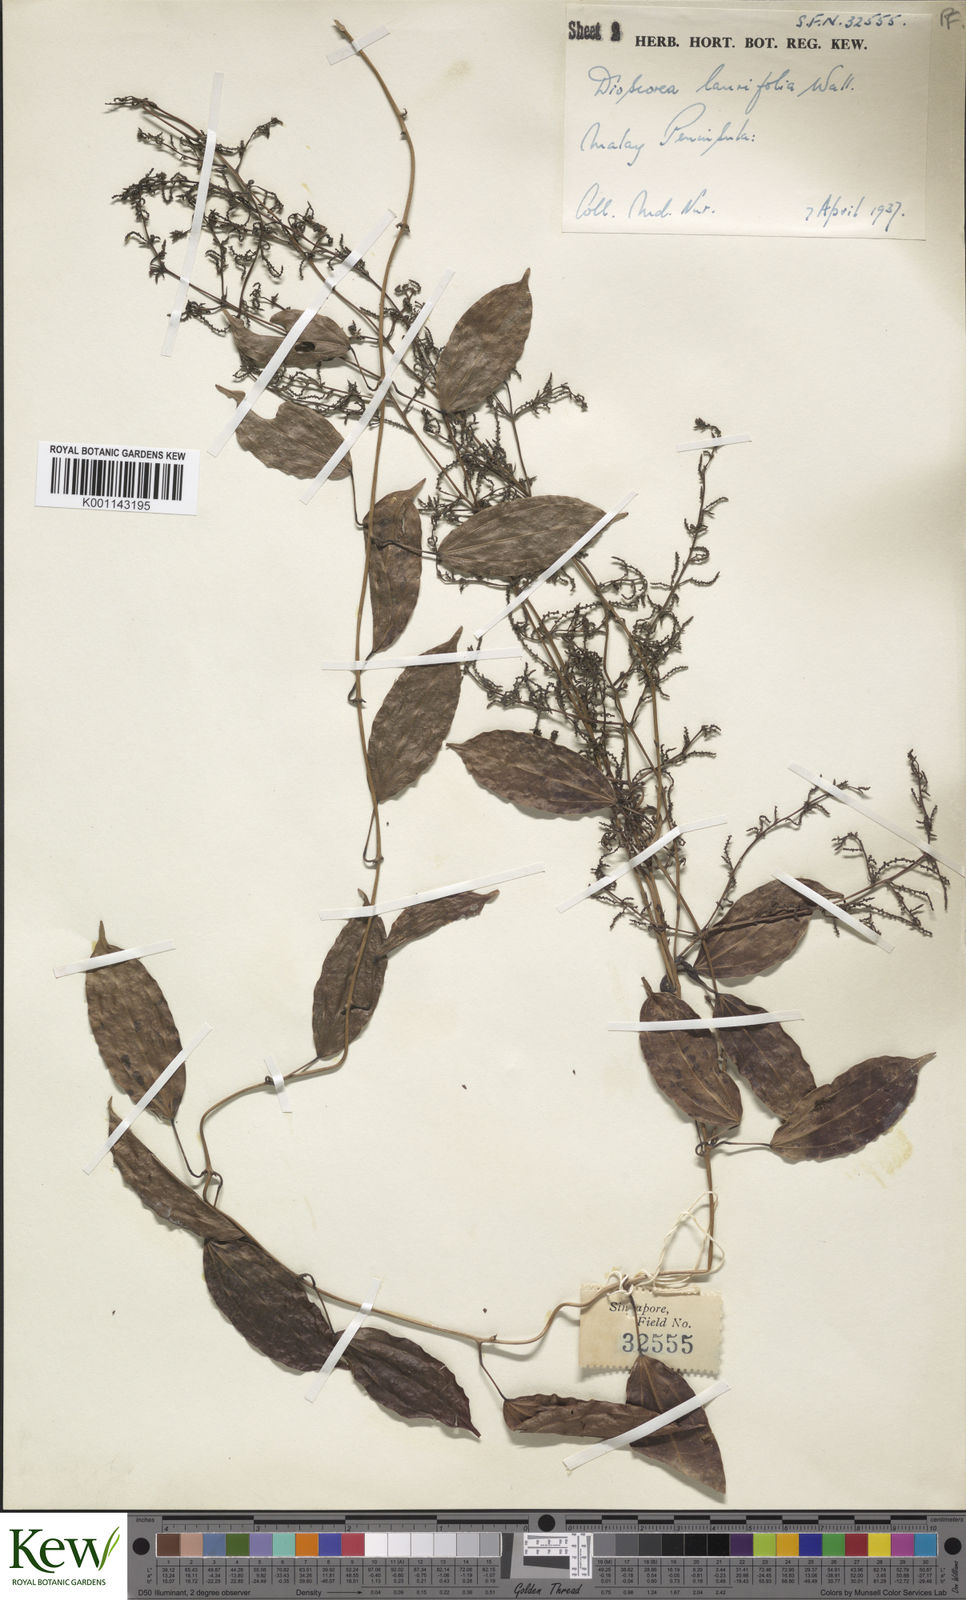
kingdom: Plantae
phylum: Tracheophyta
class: Liliopsida
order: Dioscoreales
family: Dioscoreaceae
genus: Dioscorea
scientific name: Dioscorea laurifolia
